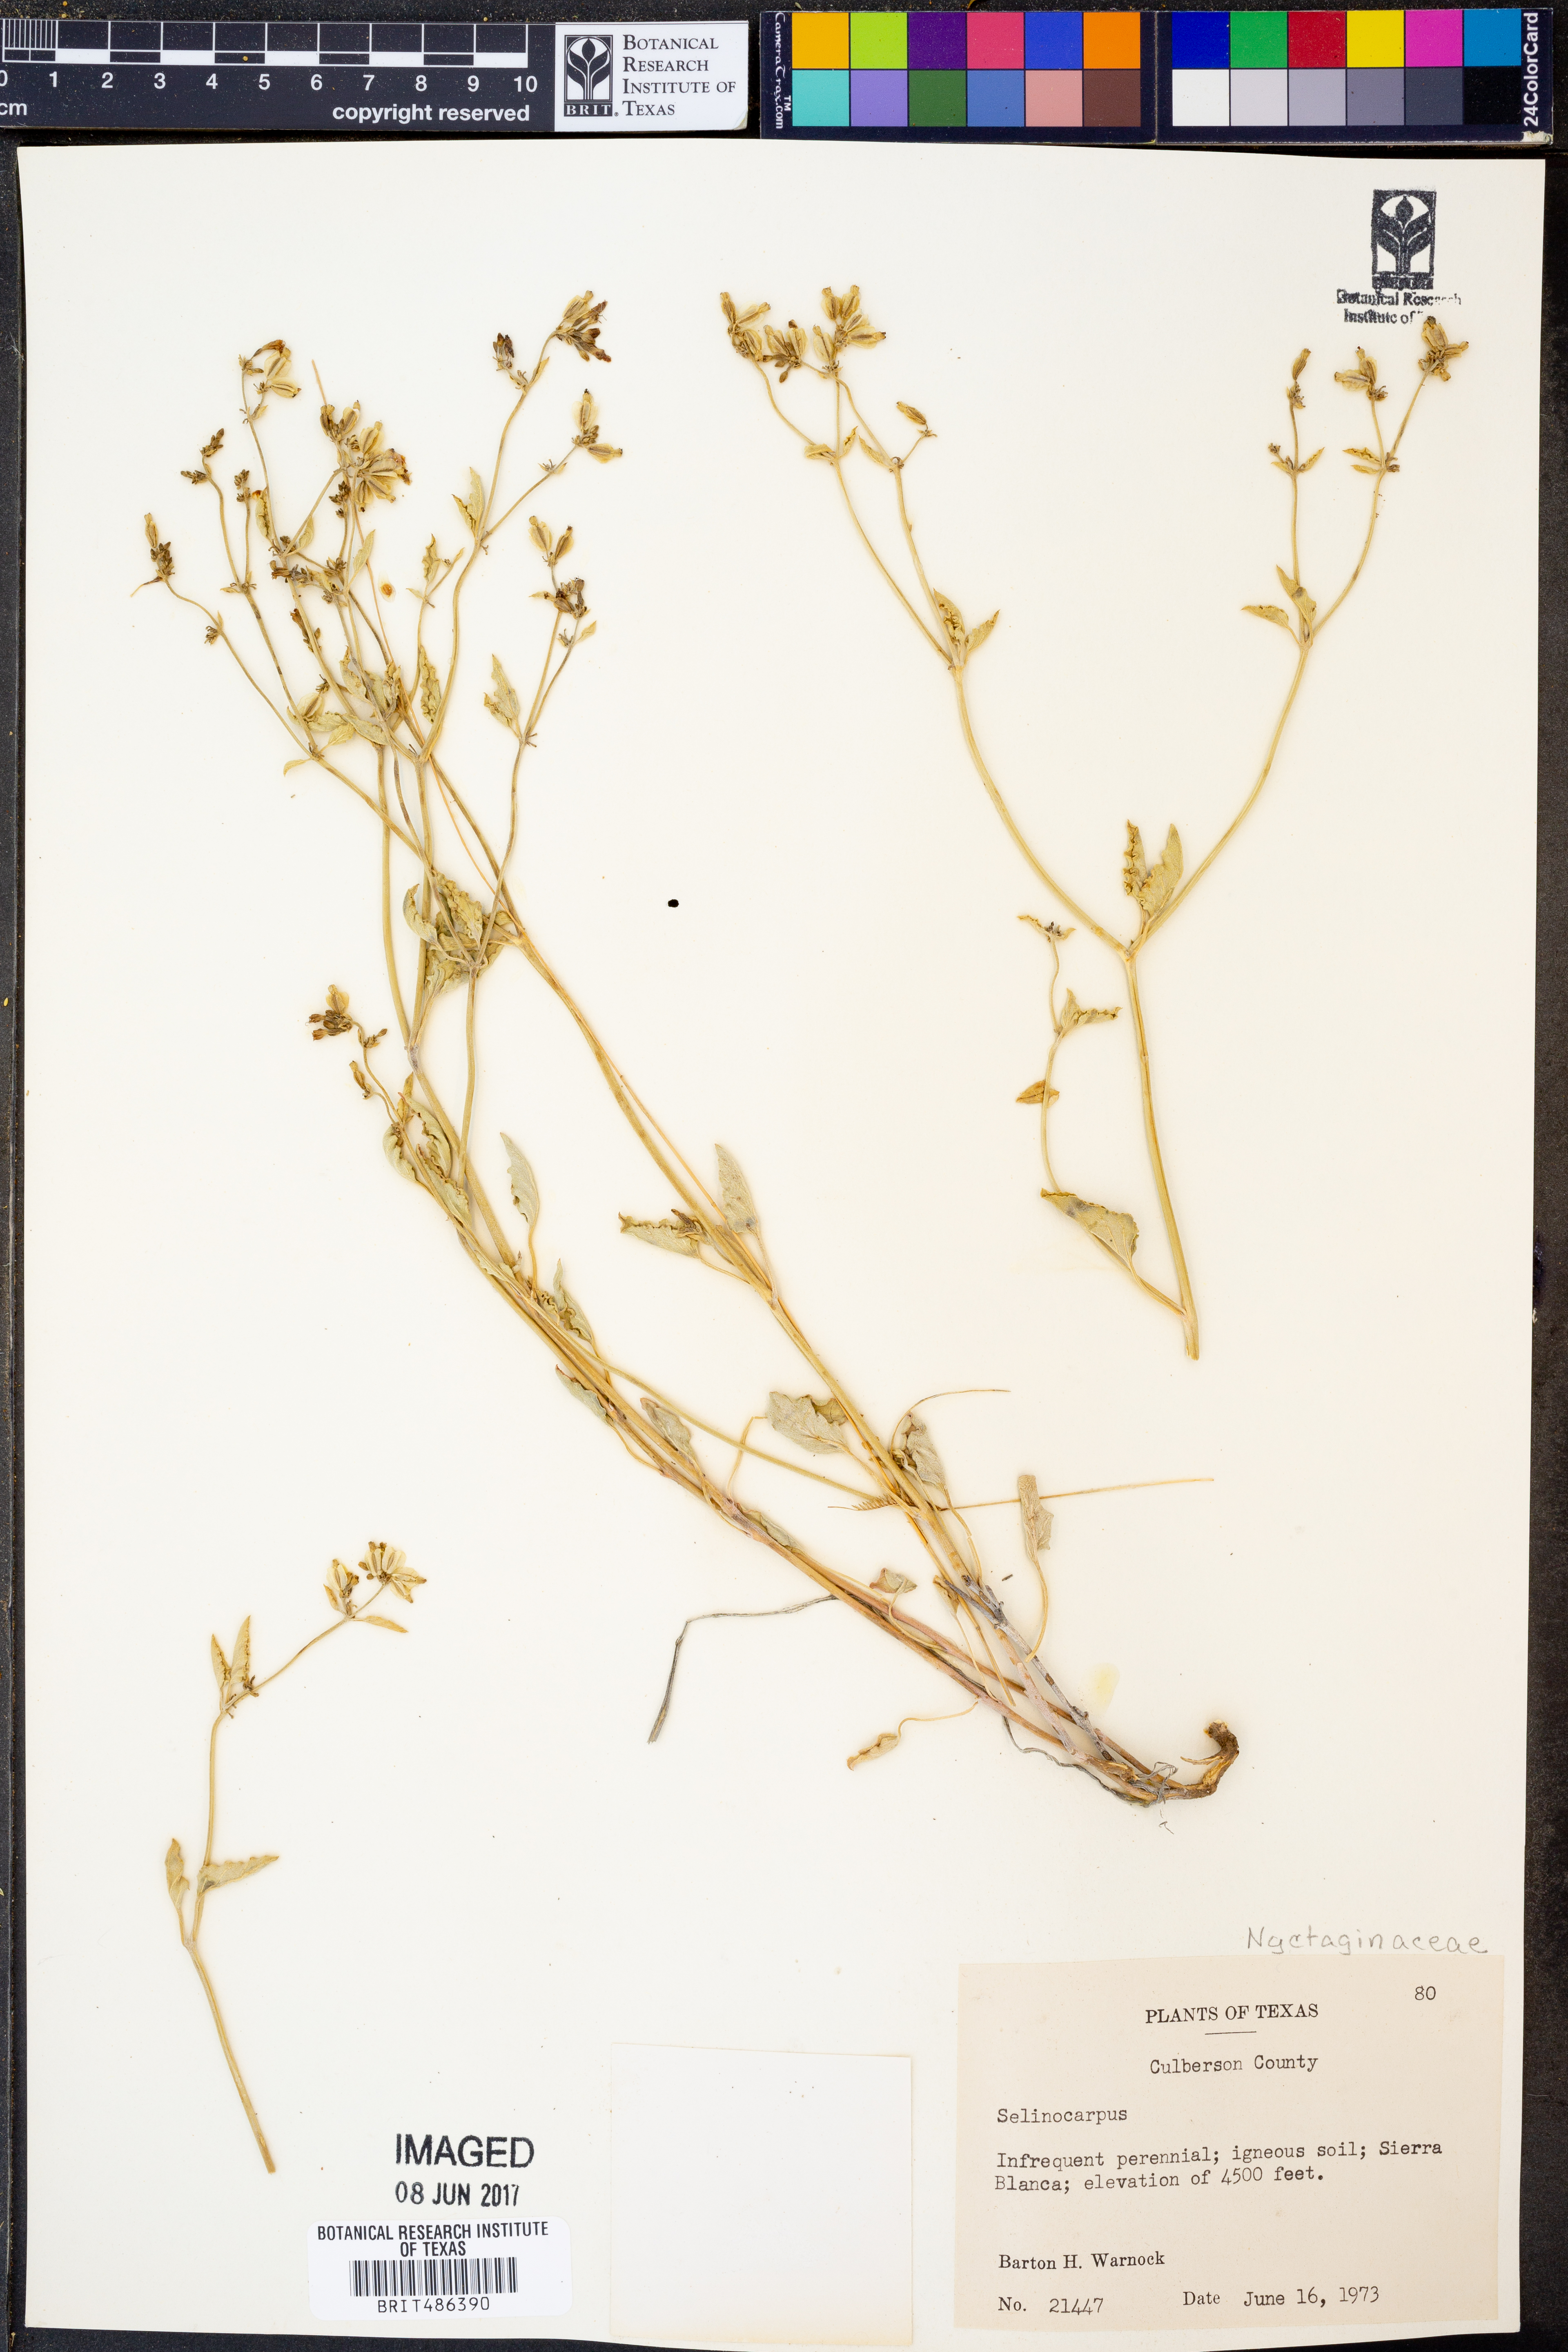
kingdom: Plantae
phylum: Tracheophyta
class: Magnoliopsida
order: Caryophyllales
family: Nyctaginaceae
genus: Acleisanthes
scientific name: Acleisanthes
